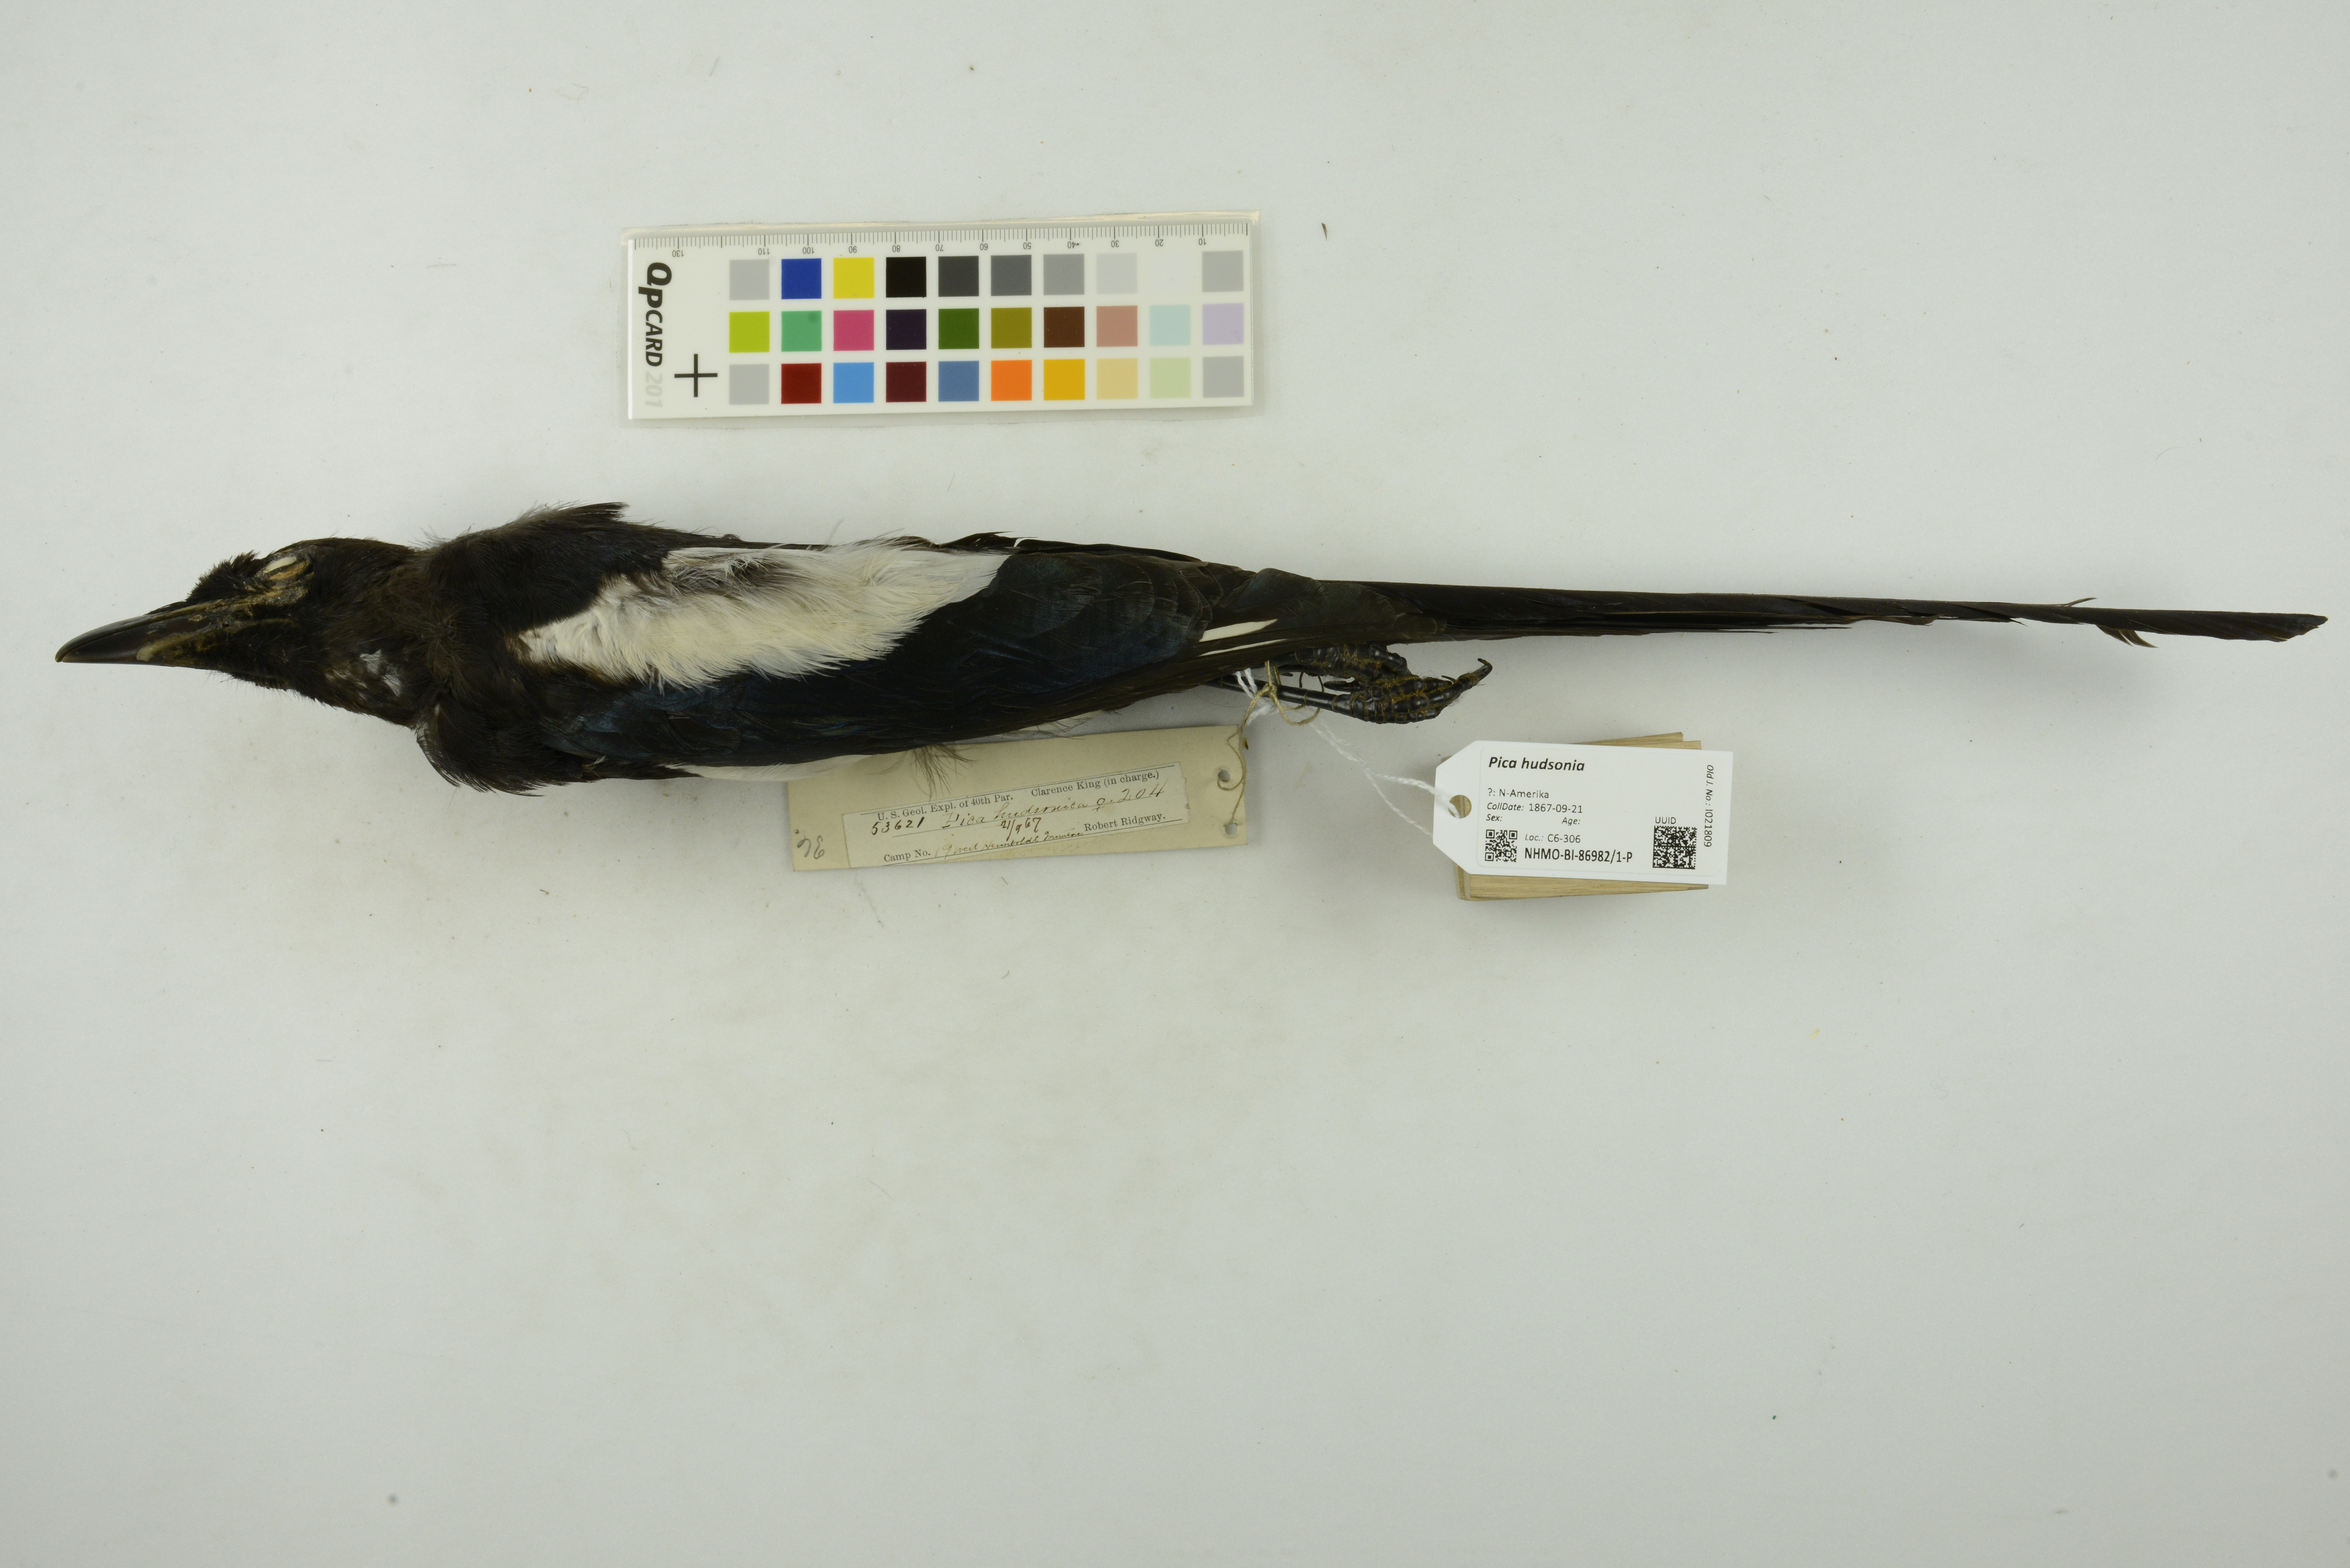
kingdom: Animalia
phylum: Chordata
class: Aves
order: Passeriformes
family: Corvidae
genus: Pica
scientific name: Pica hudsonia
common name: Black-billed magpie
